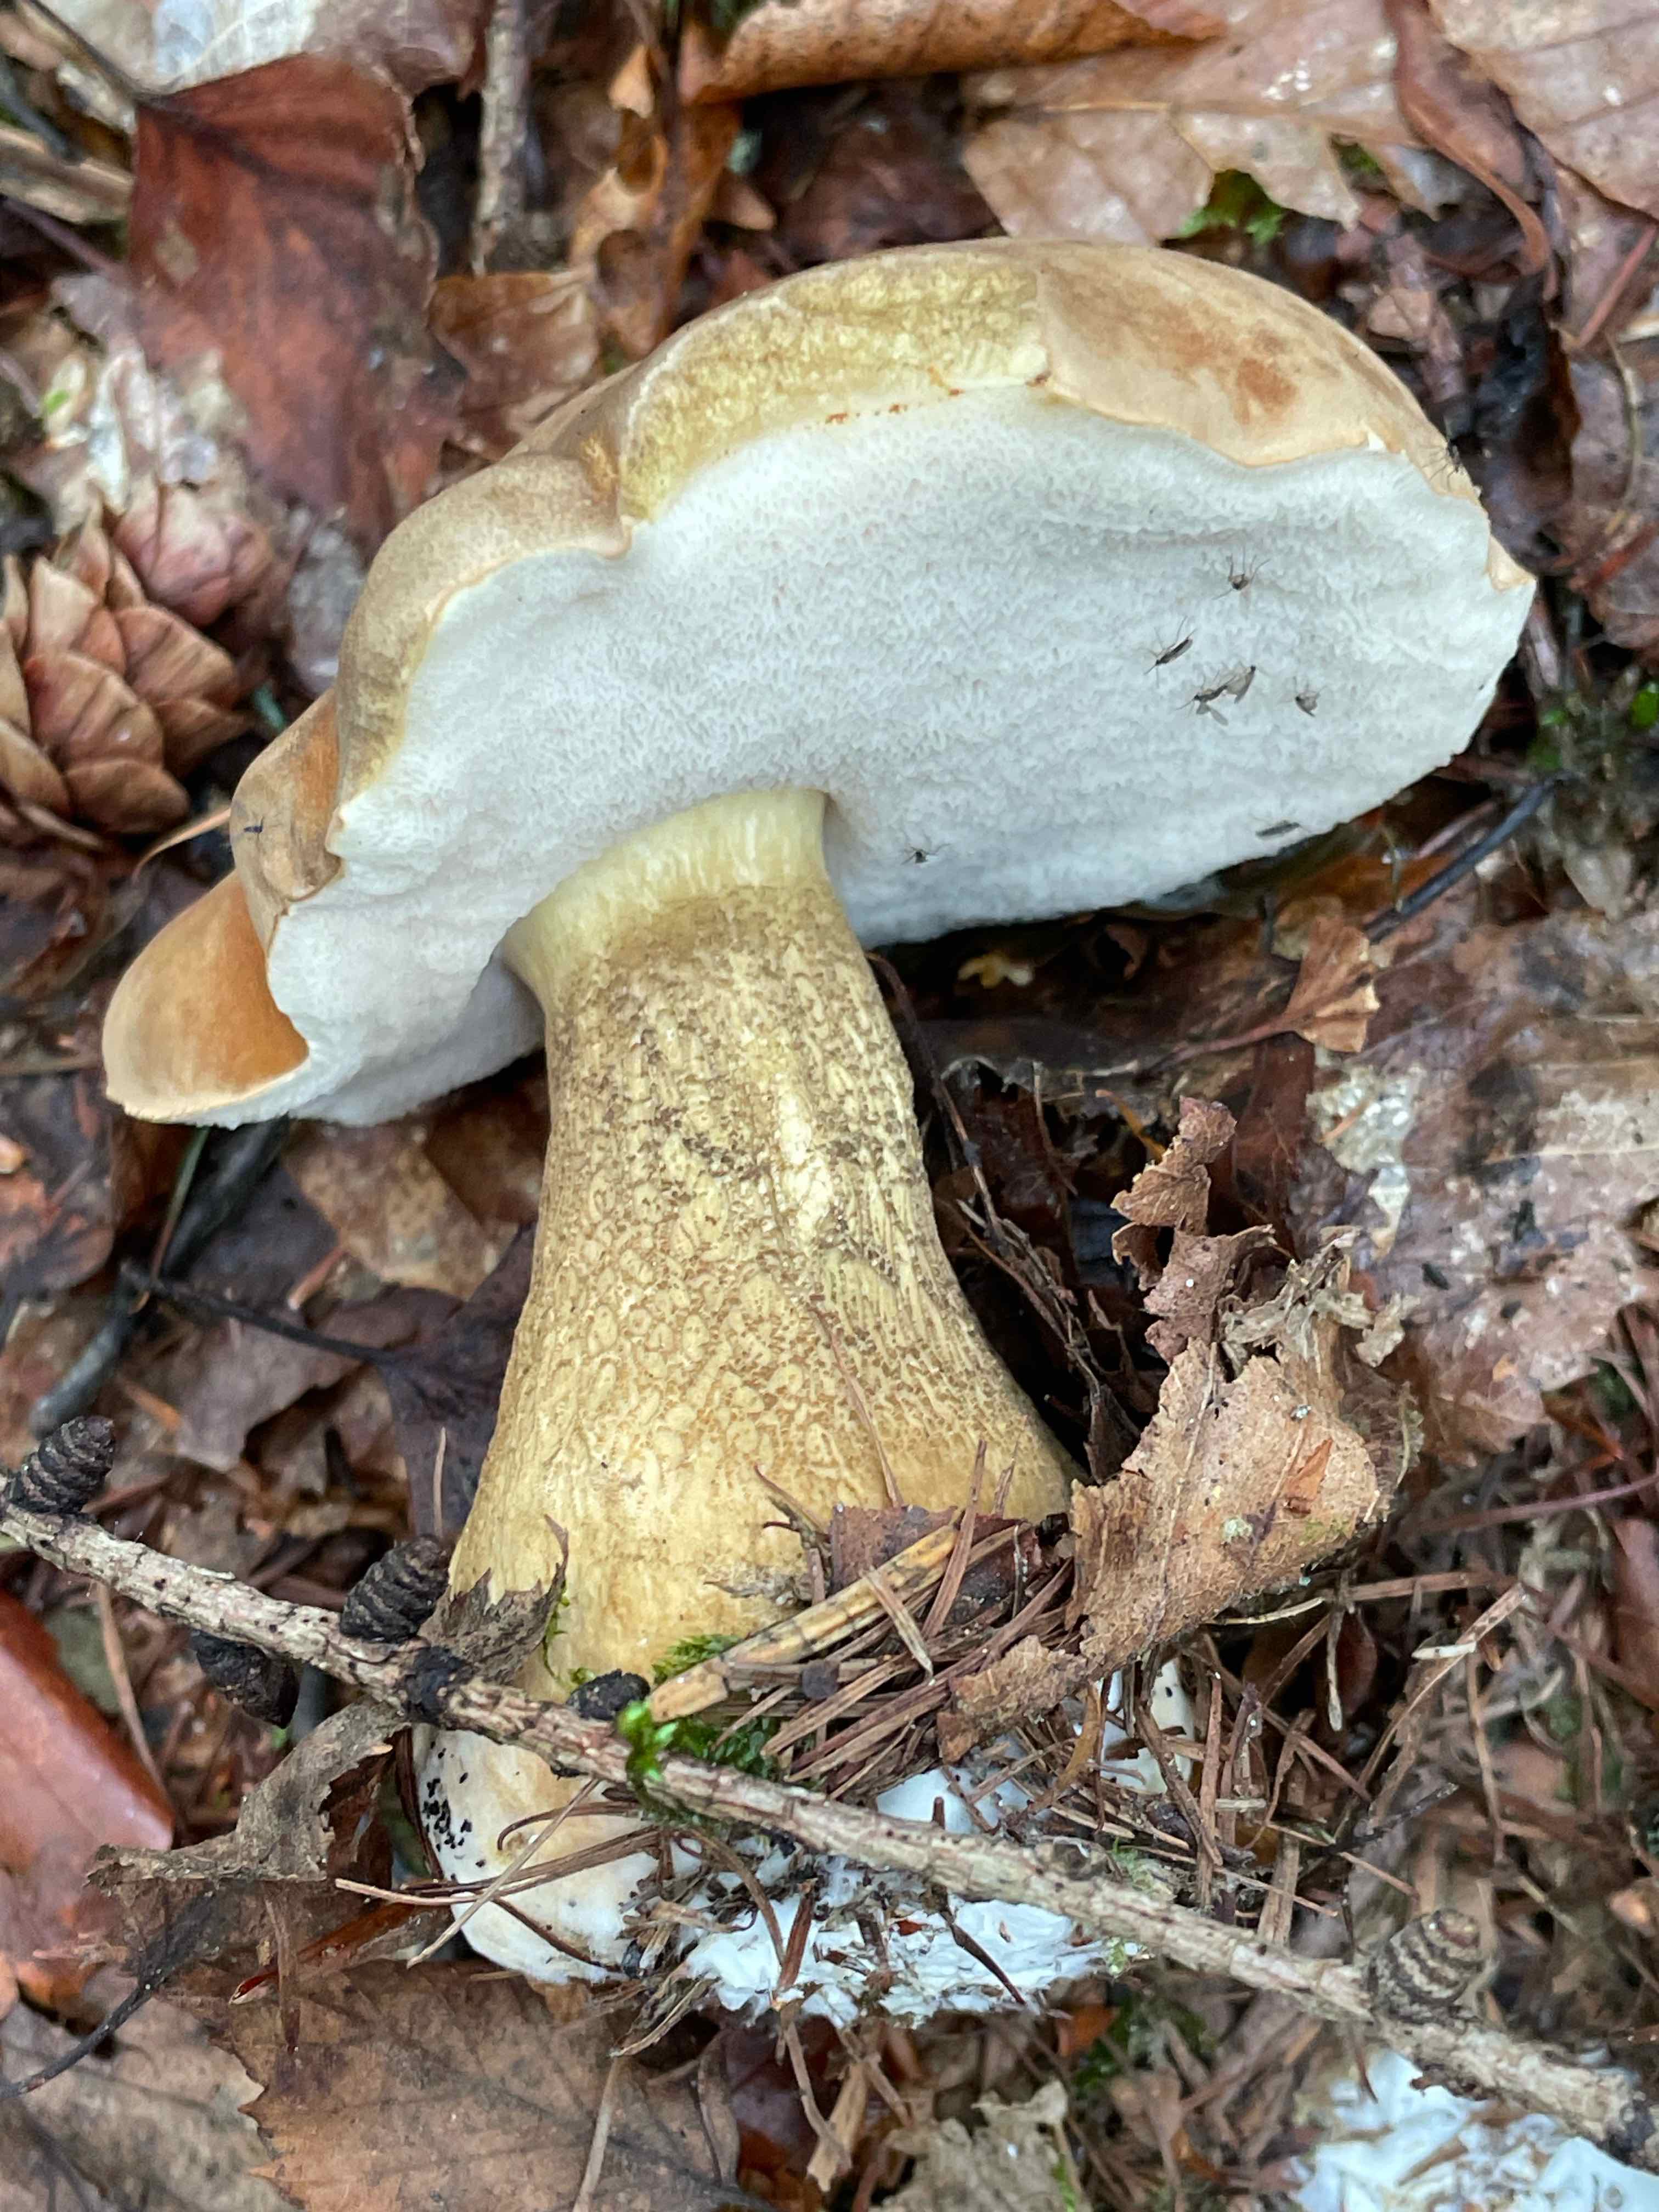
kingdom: Fungi
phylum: Basidiomycota
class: Agaricomycetes
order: Boletales
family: Boletaceae
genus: Tylopilus
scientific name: Tylopilus felleus
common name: galderørhat
